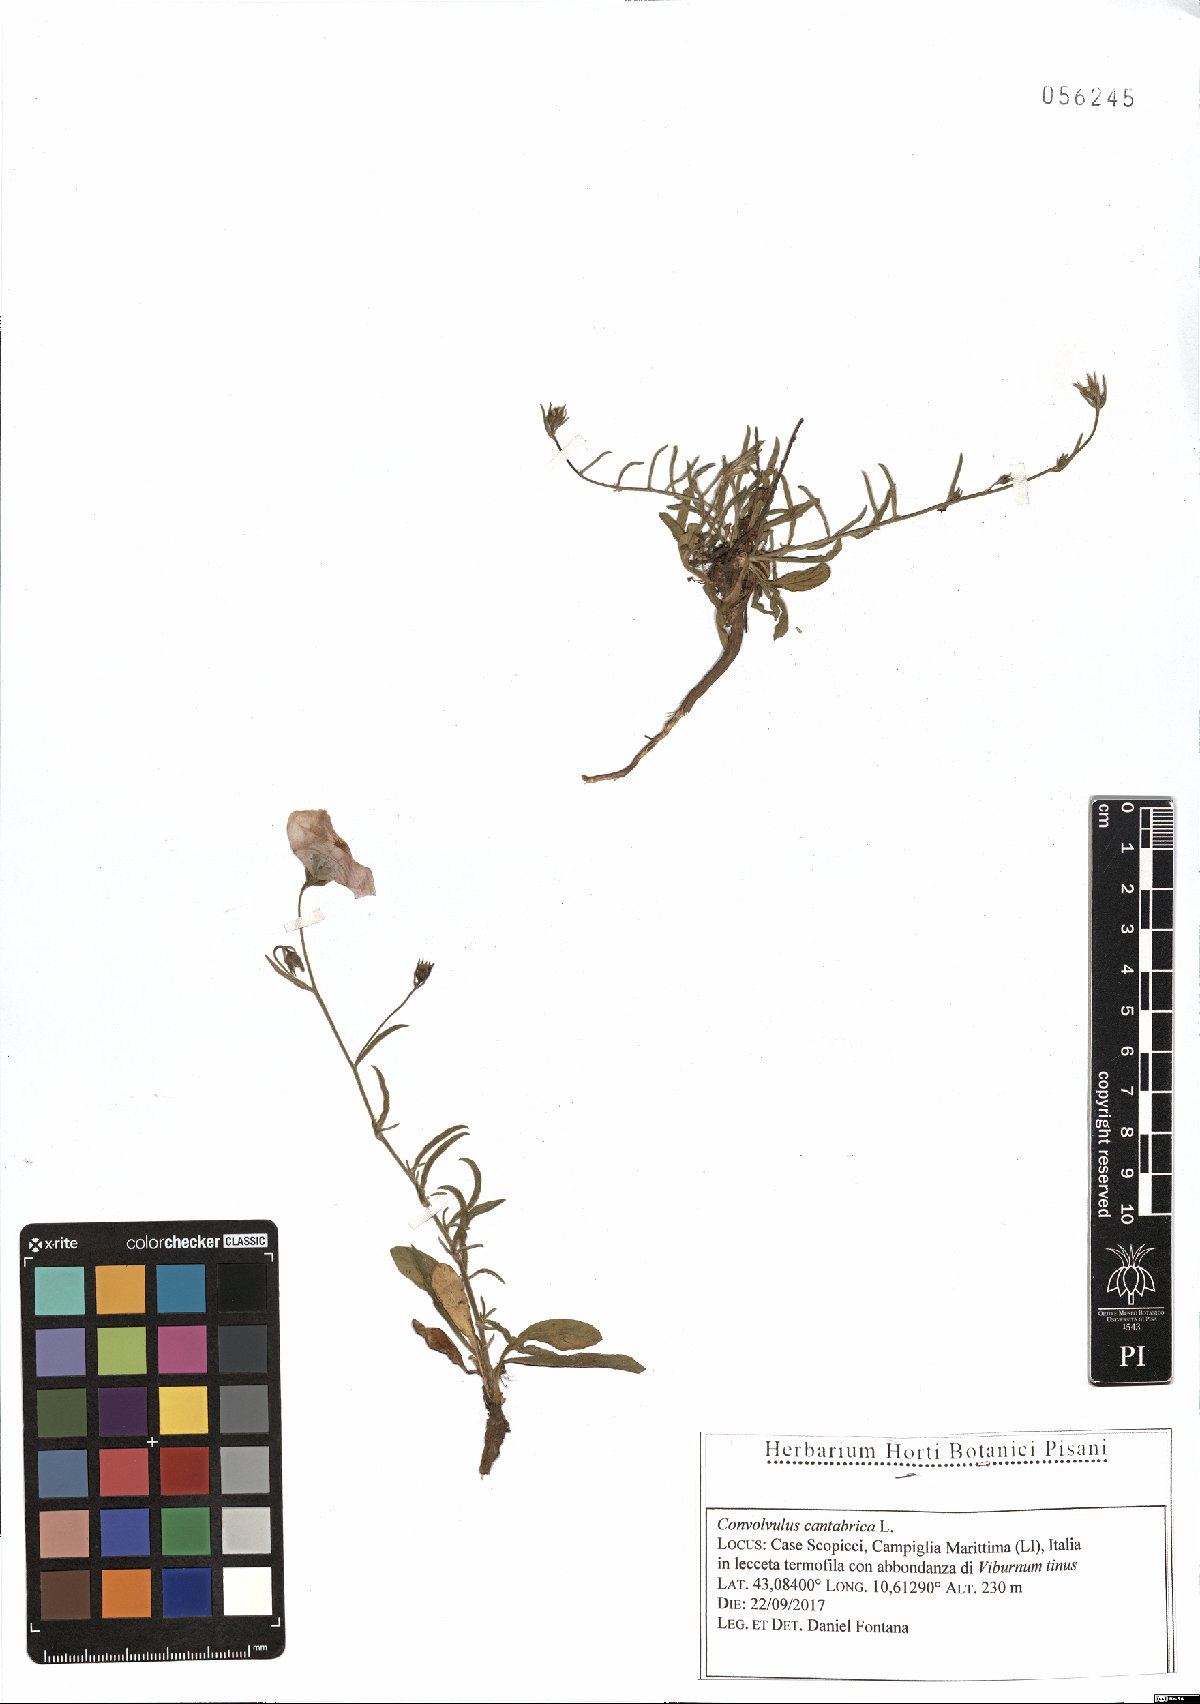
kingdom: Plantae
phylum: Tracheophyta
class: Magnoliopsida
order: Solanales
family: Convolvulaceae
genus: Convolvulus
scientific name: Convolvulus cantabrica
